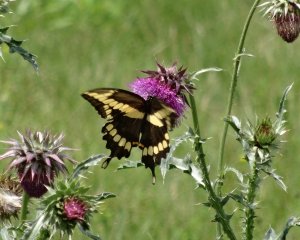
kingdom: Animalia
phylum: Arthropoda
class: Insecta
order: Lepidoptera
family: Papilionidae
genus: Papilio
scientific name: Papilio cresphontes
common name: Eastern Giant Swallowtail
